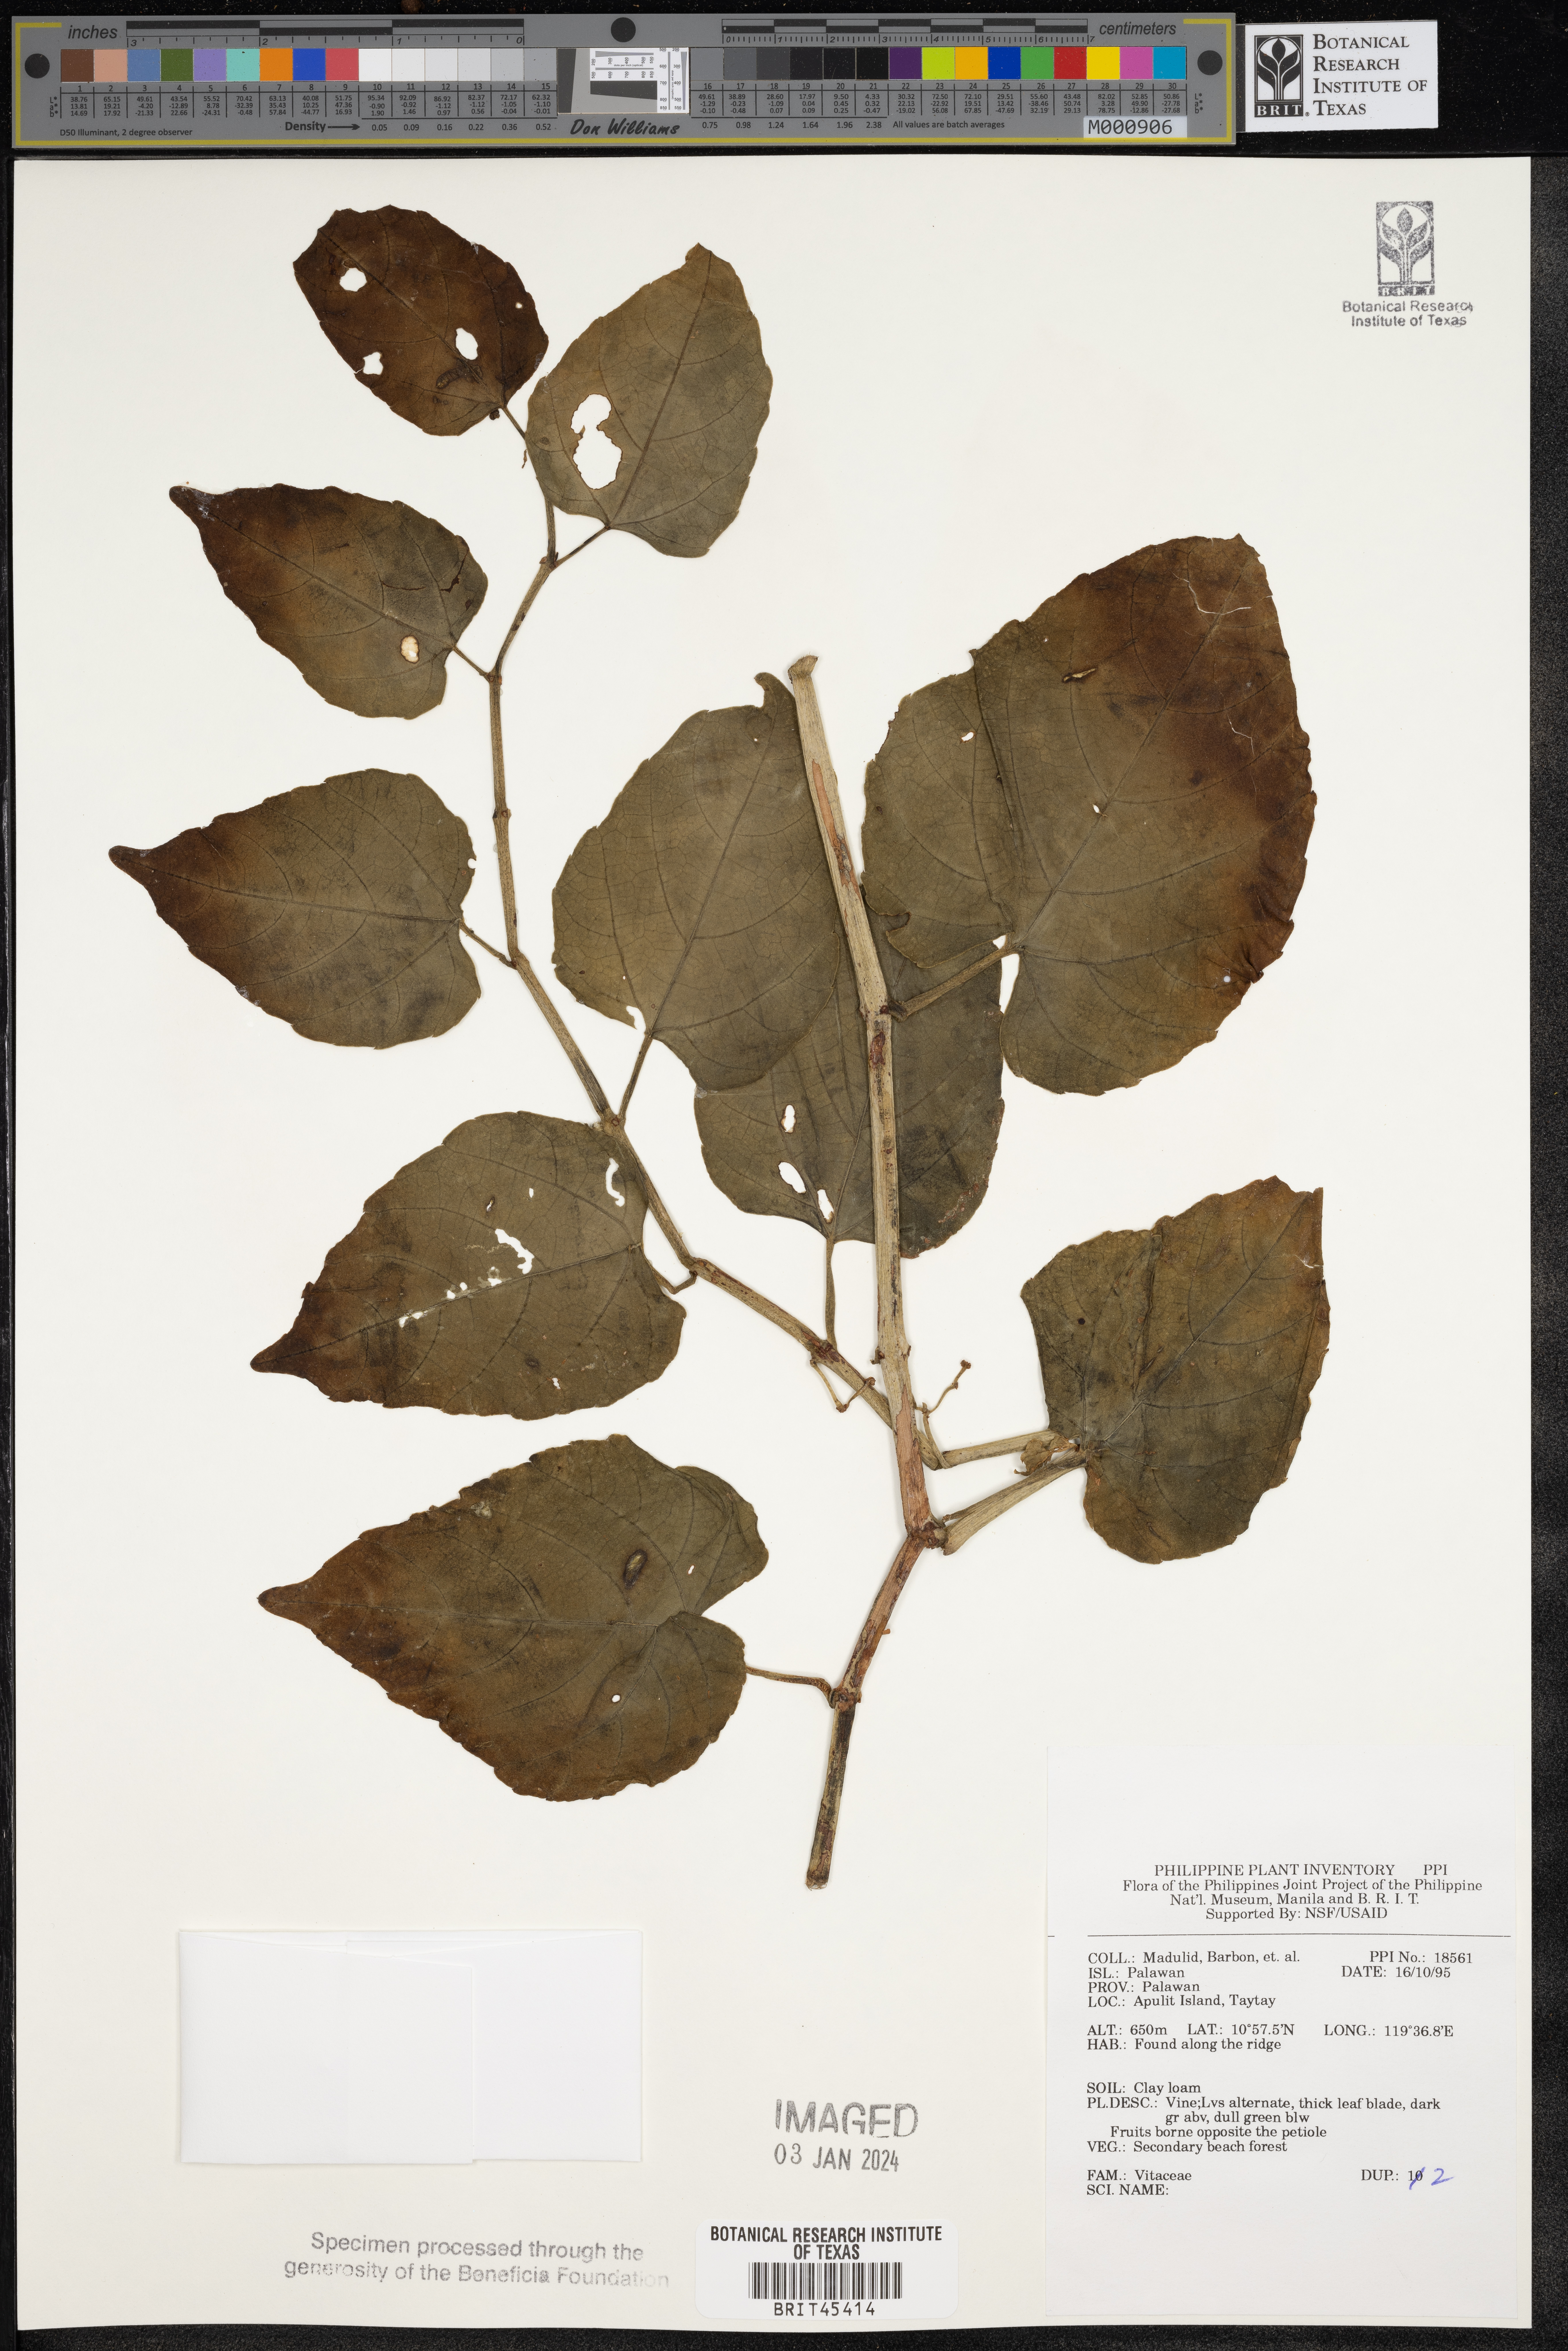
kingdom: Plantae
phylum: Tracheophyta
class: Magnoliopsida
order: Vitales
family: Vitaceae
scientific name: Vitaceae
